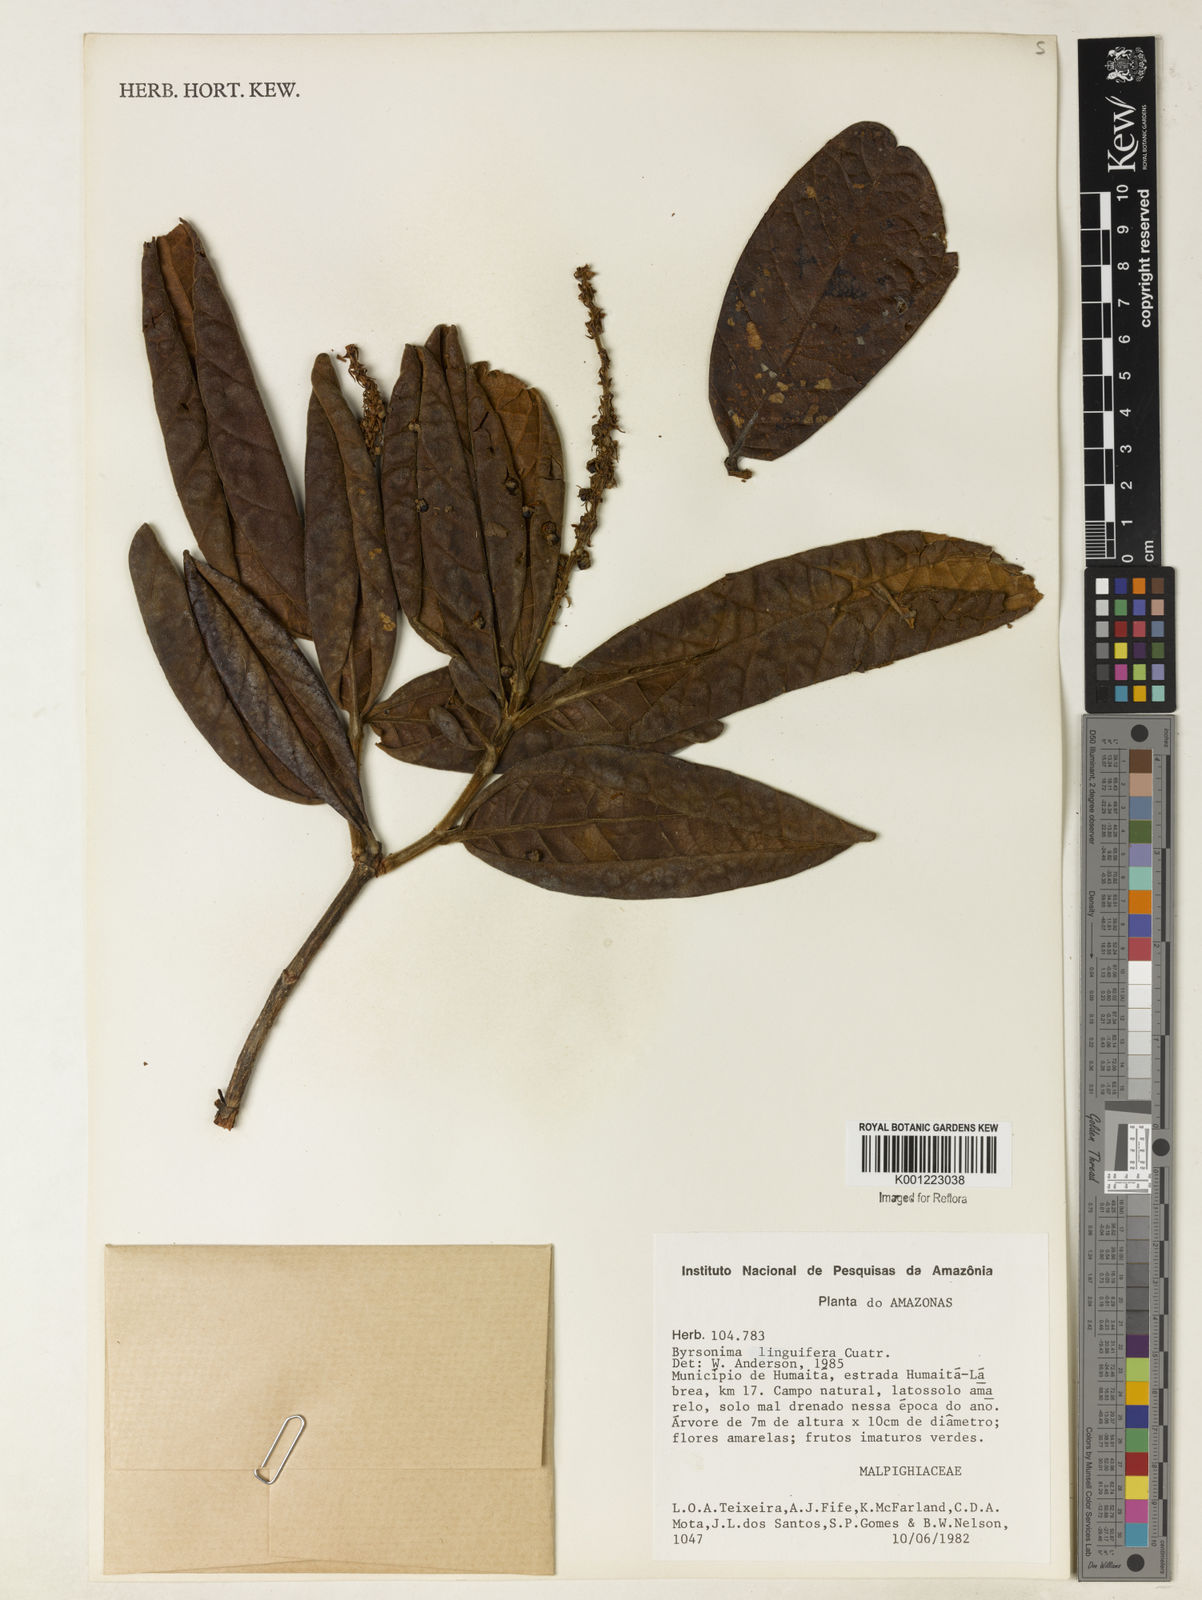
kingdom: Plantae
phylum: Tracheophyta
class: Magnoliopsida
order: Malpighiales
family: Malpighiaceae
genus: Byrsonima
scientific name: Byrsonima linguifera
